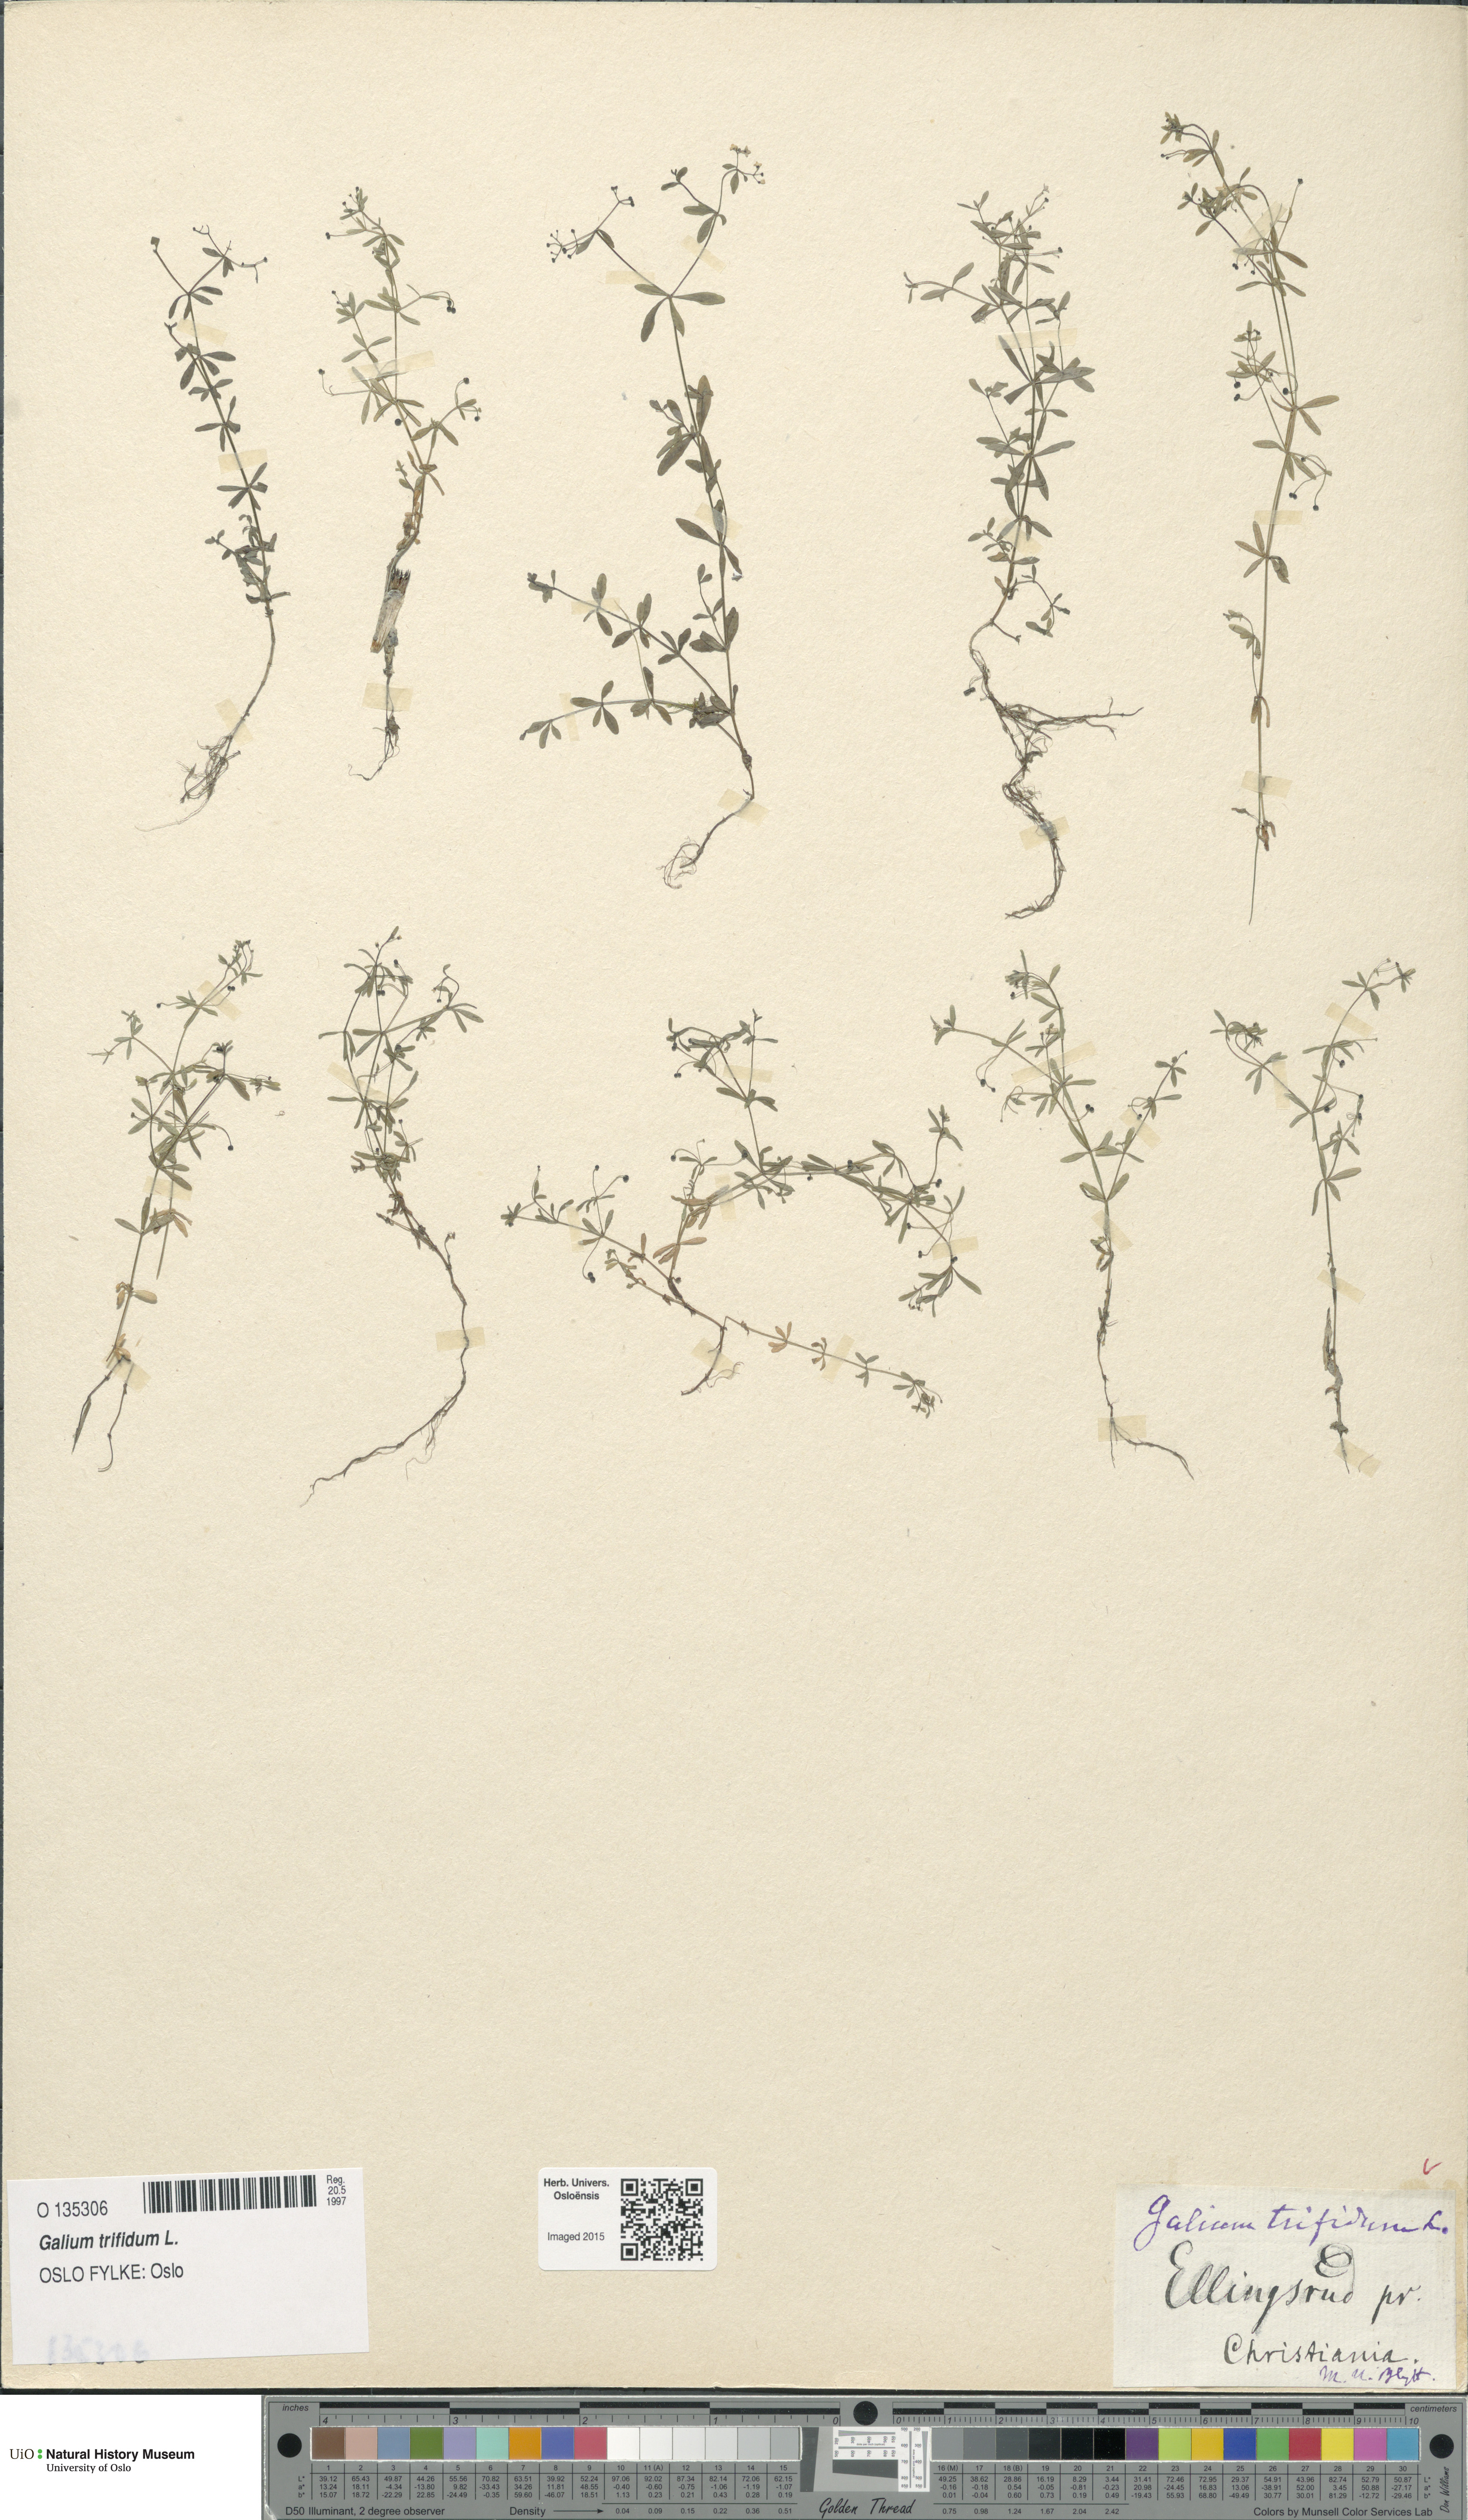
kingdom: Plantae
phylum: Tracheophyta
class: Magnoliopsida
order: Gentianales
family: Rubiaceae
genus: Galium
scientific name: Galium trifidum
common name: Small bedstraw
